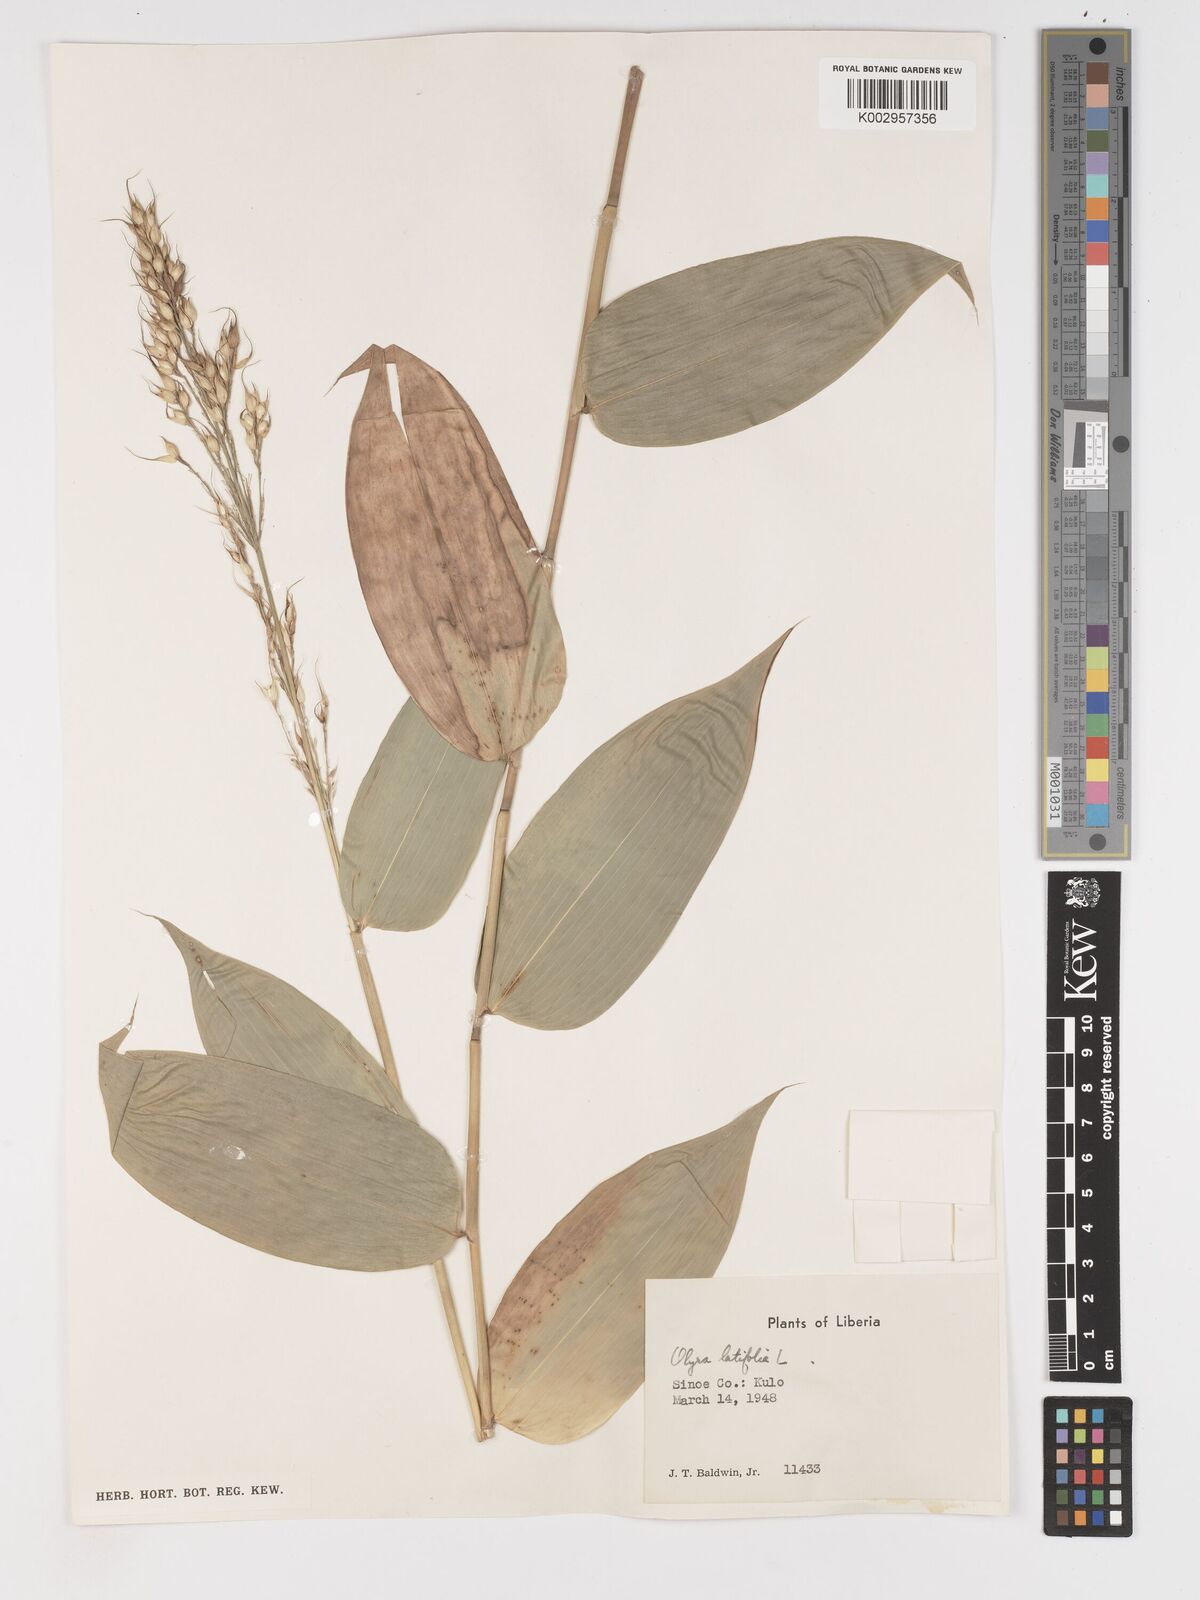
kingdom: Plantae
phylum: Tracheophyta
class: Liliopsida
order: Poales
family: Poaceae
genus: Olyra
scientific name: Olyra latifolia
